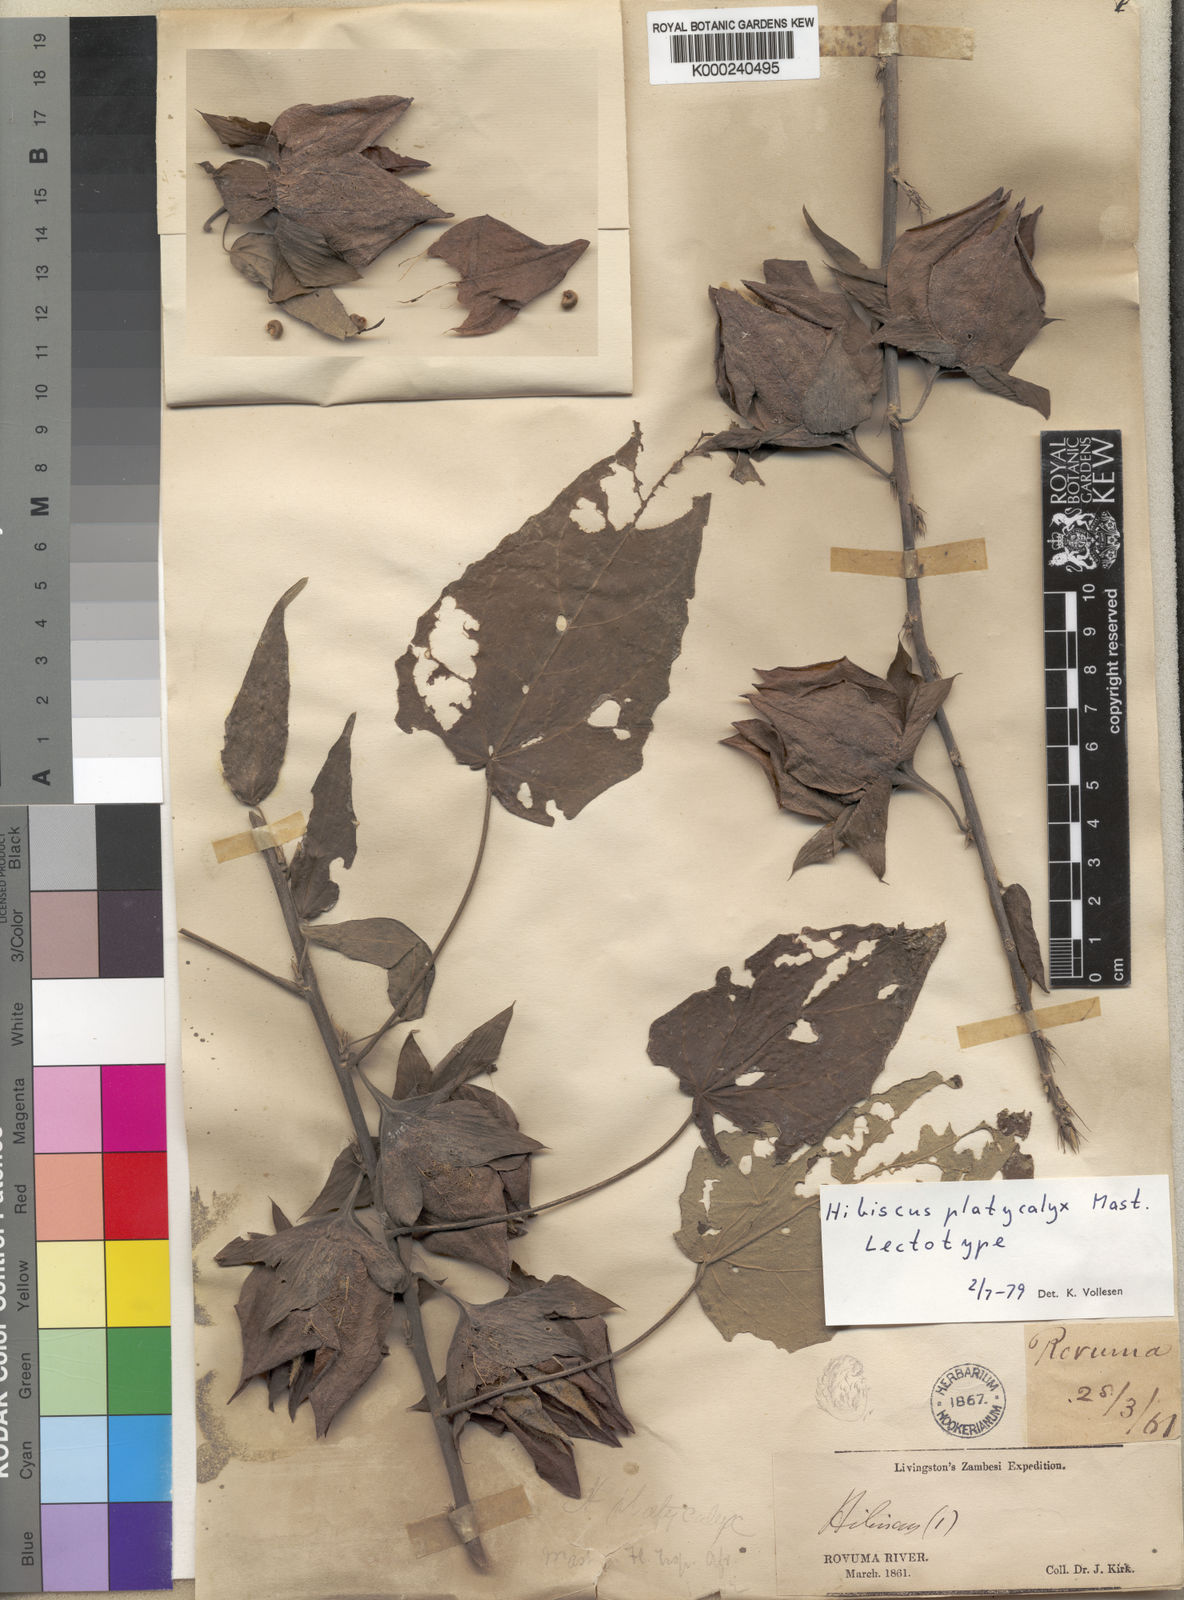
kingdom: Plantae
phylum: Tracheophyta
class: Magnoliopsida
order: Malvales
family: Malvaceae
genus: Hibiscus
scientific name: Hibiscus platycalyx
